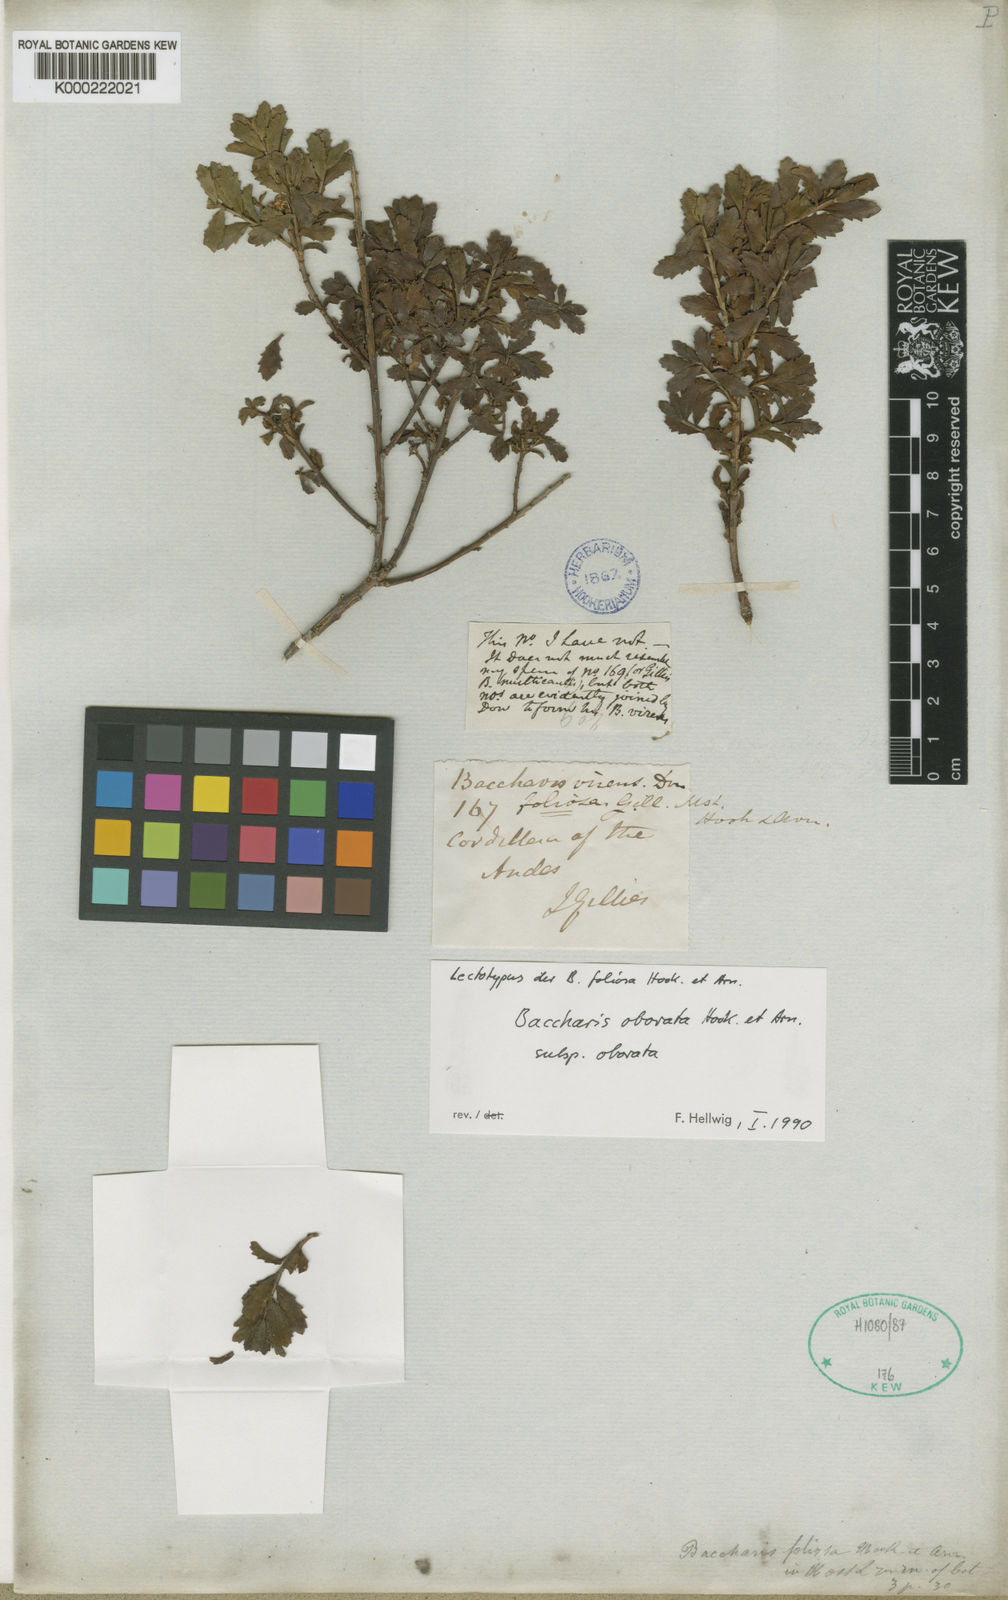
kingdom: Plantae
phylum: Tracheophyta
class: Magnoliopsida
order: Asterales
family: Asteraceae
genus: Baccharis
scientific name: Baccharis obovata
